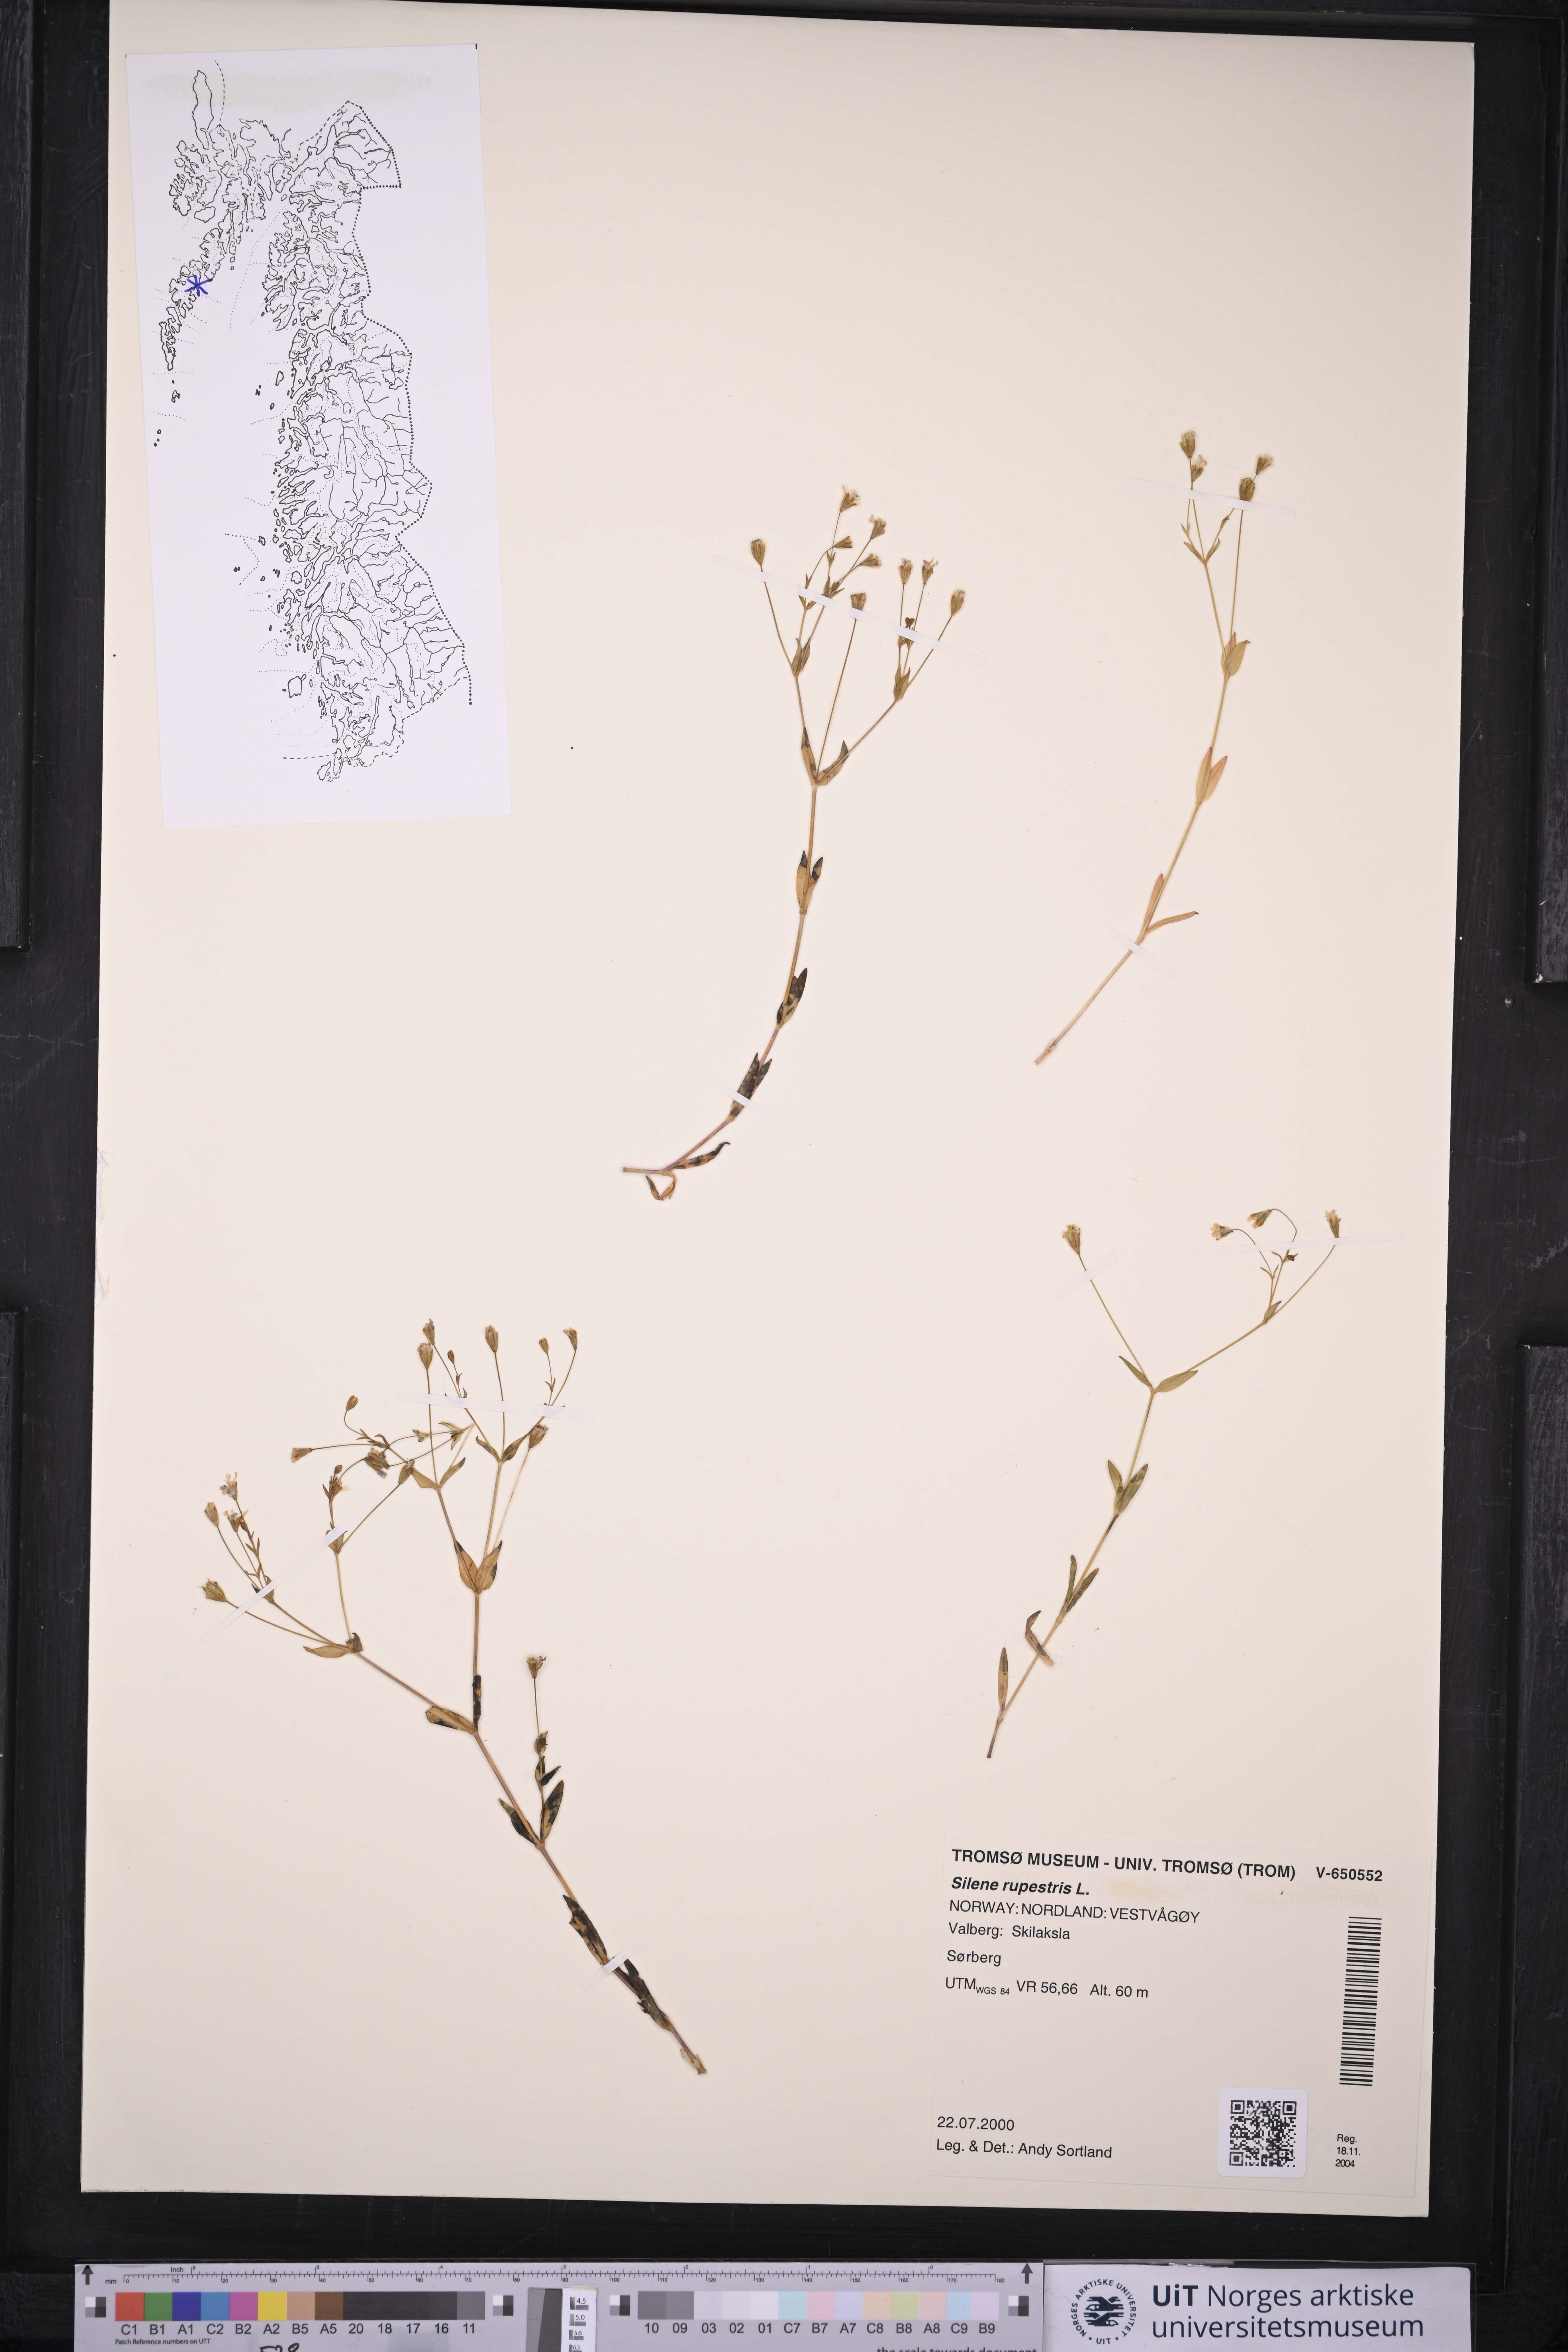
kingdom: Plantae
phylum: Tracheophyta
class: Magnoliopsida
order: Caryophyllales
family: Caryophyllaceae
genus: Atocion
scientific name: Atocion rupestre
